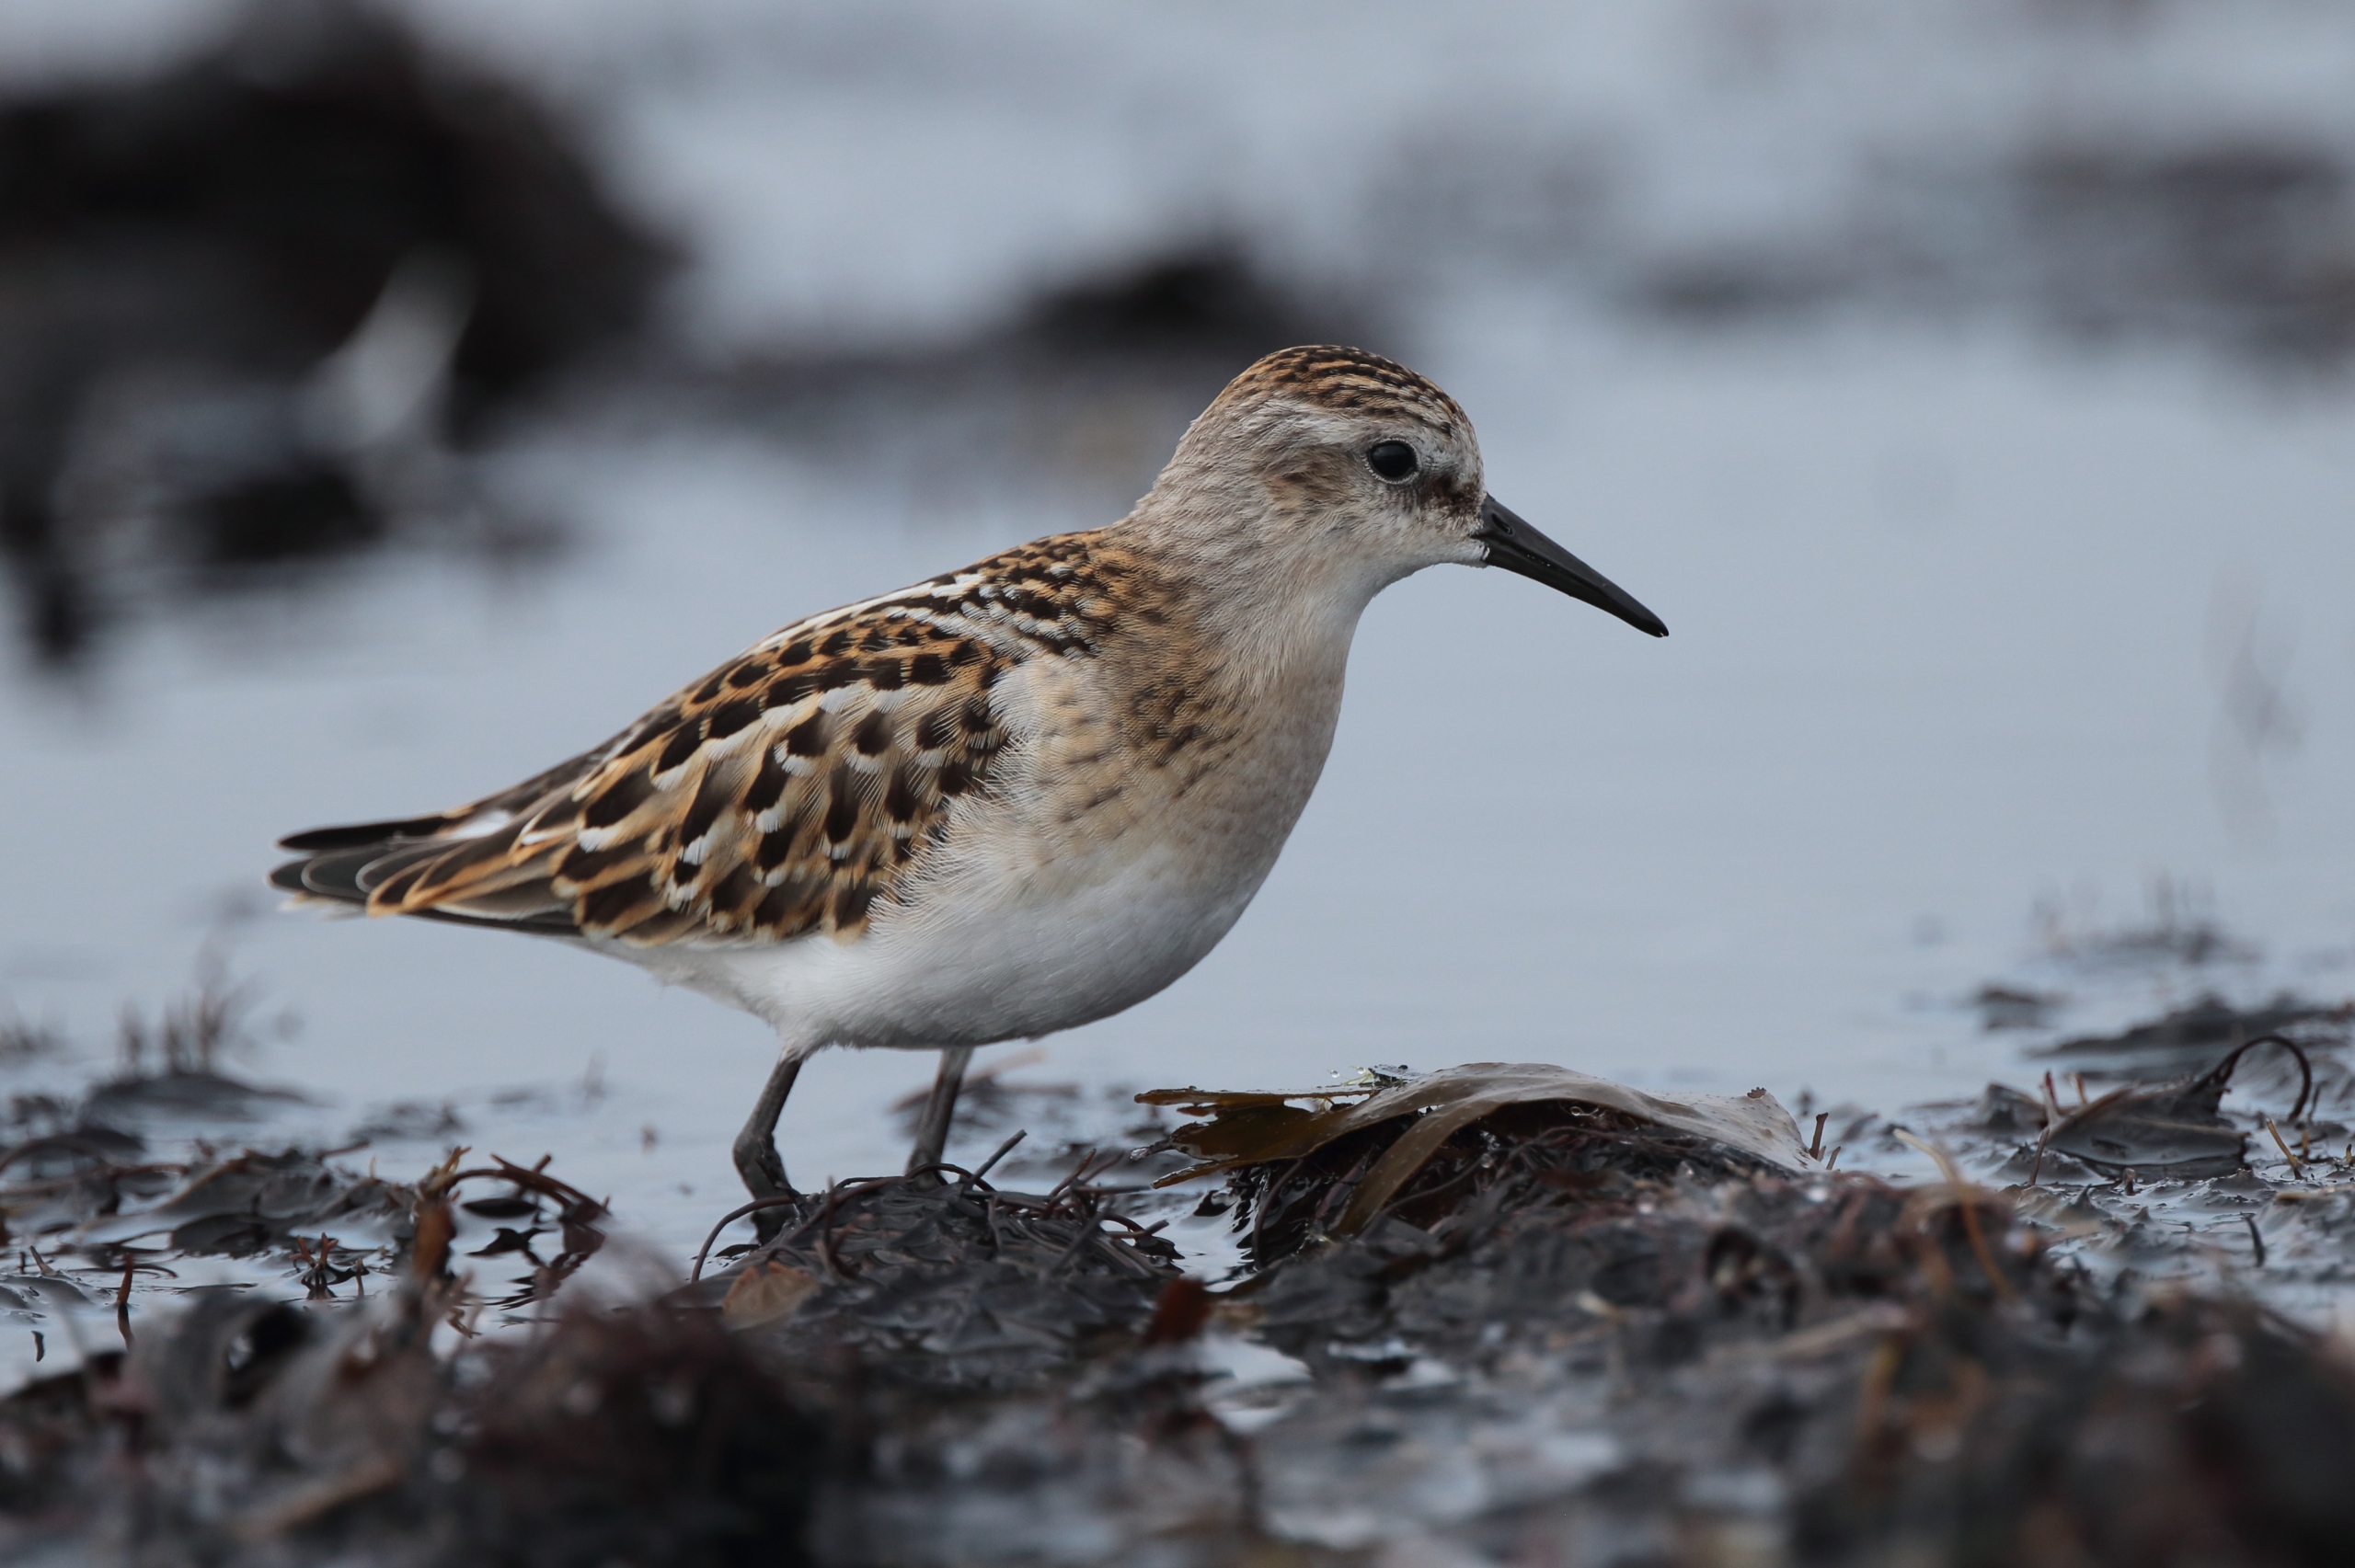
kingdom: Animalia
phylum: Chordata
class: Aves
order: Charadriiformes
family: Scolopacidae
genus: Calidris
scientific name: Calidris minuta
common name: Dværgryle
